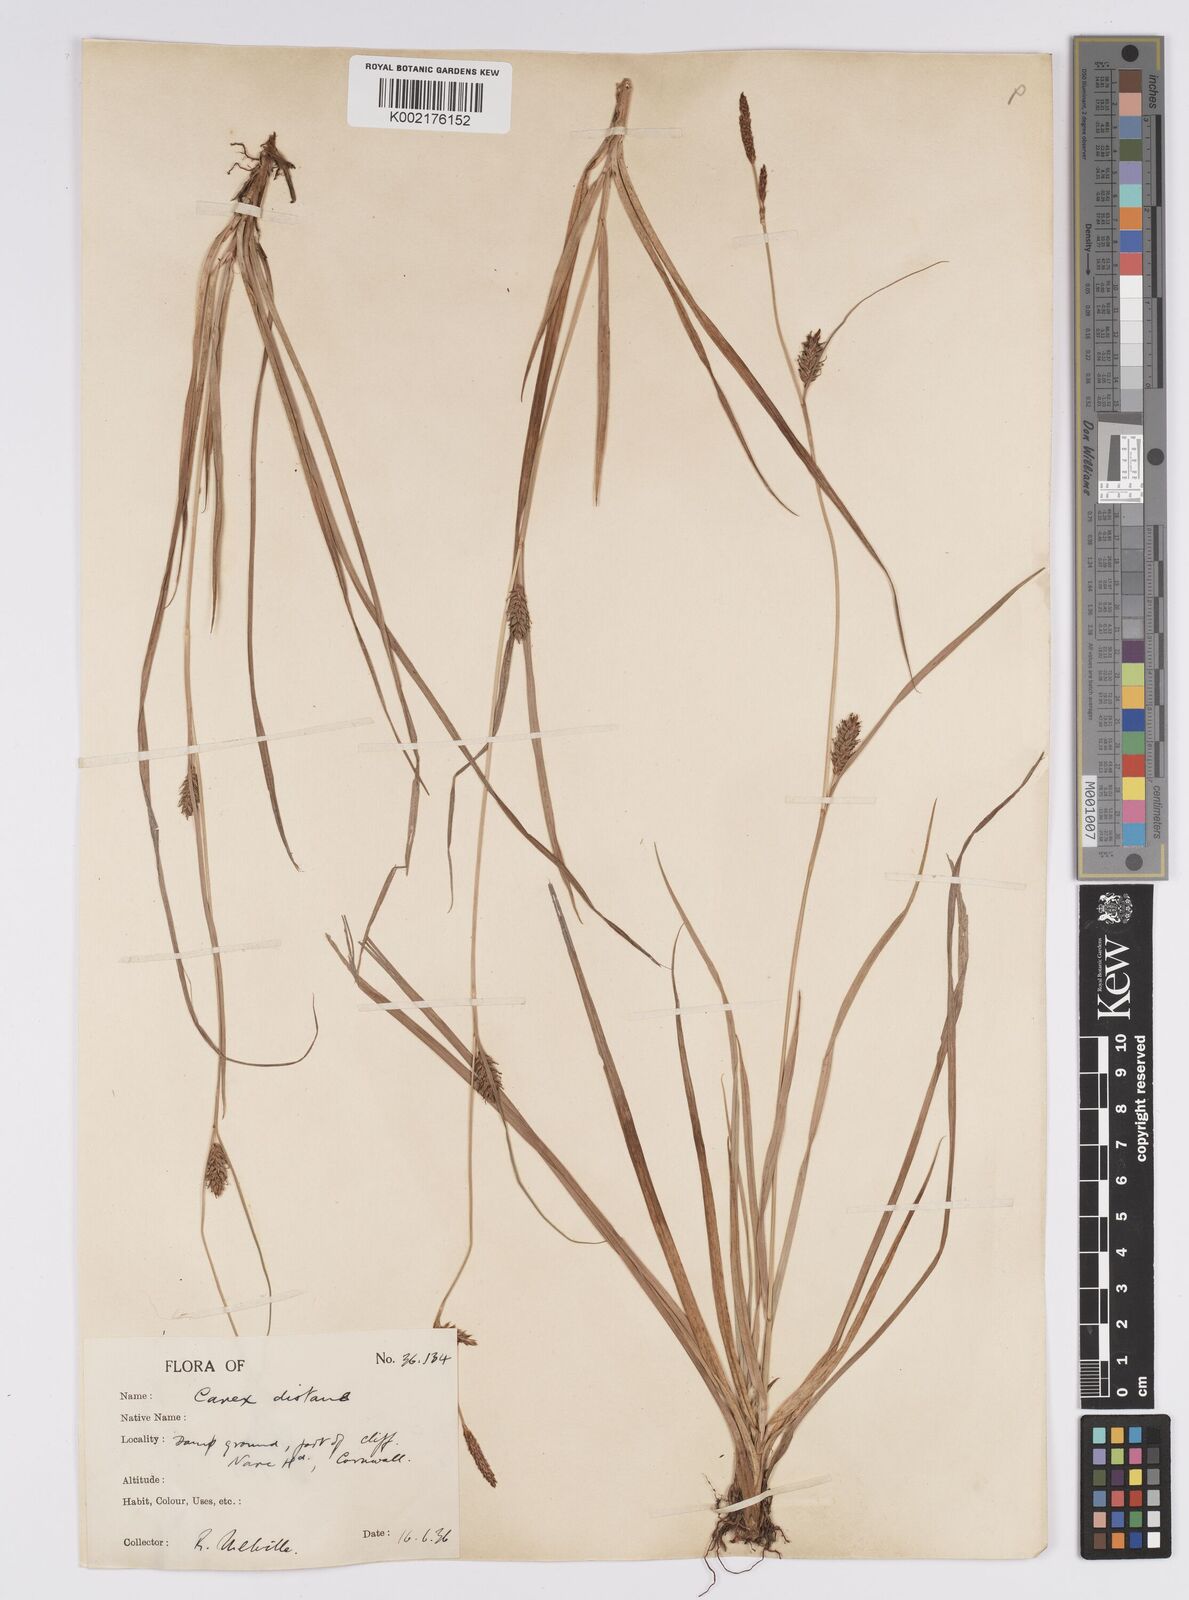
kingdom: Plantae
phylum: Tracheophyta
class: Liliopsida
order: Poales
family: Cyperaceae
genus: Carex
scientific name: Carex distans
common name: Distant sedge
